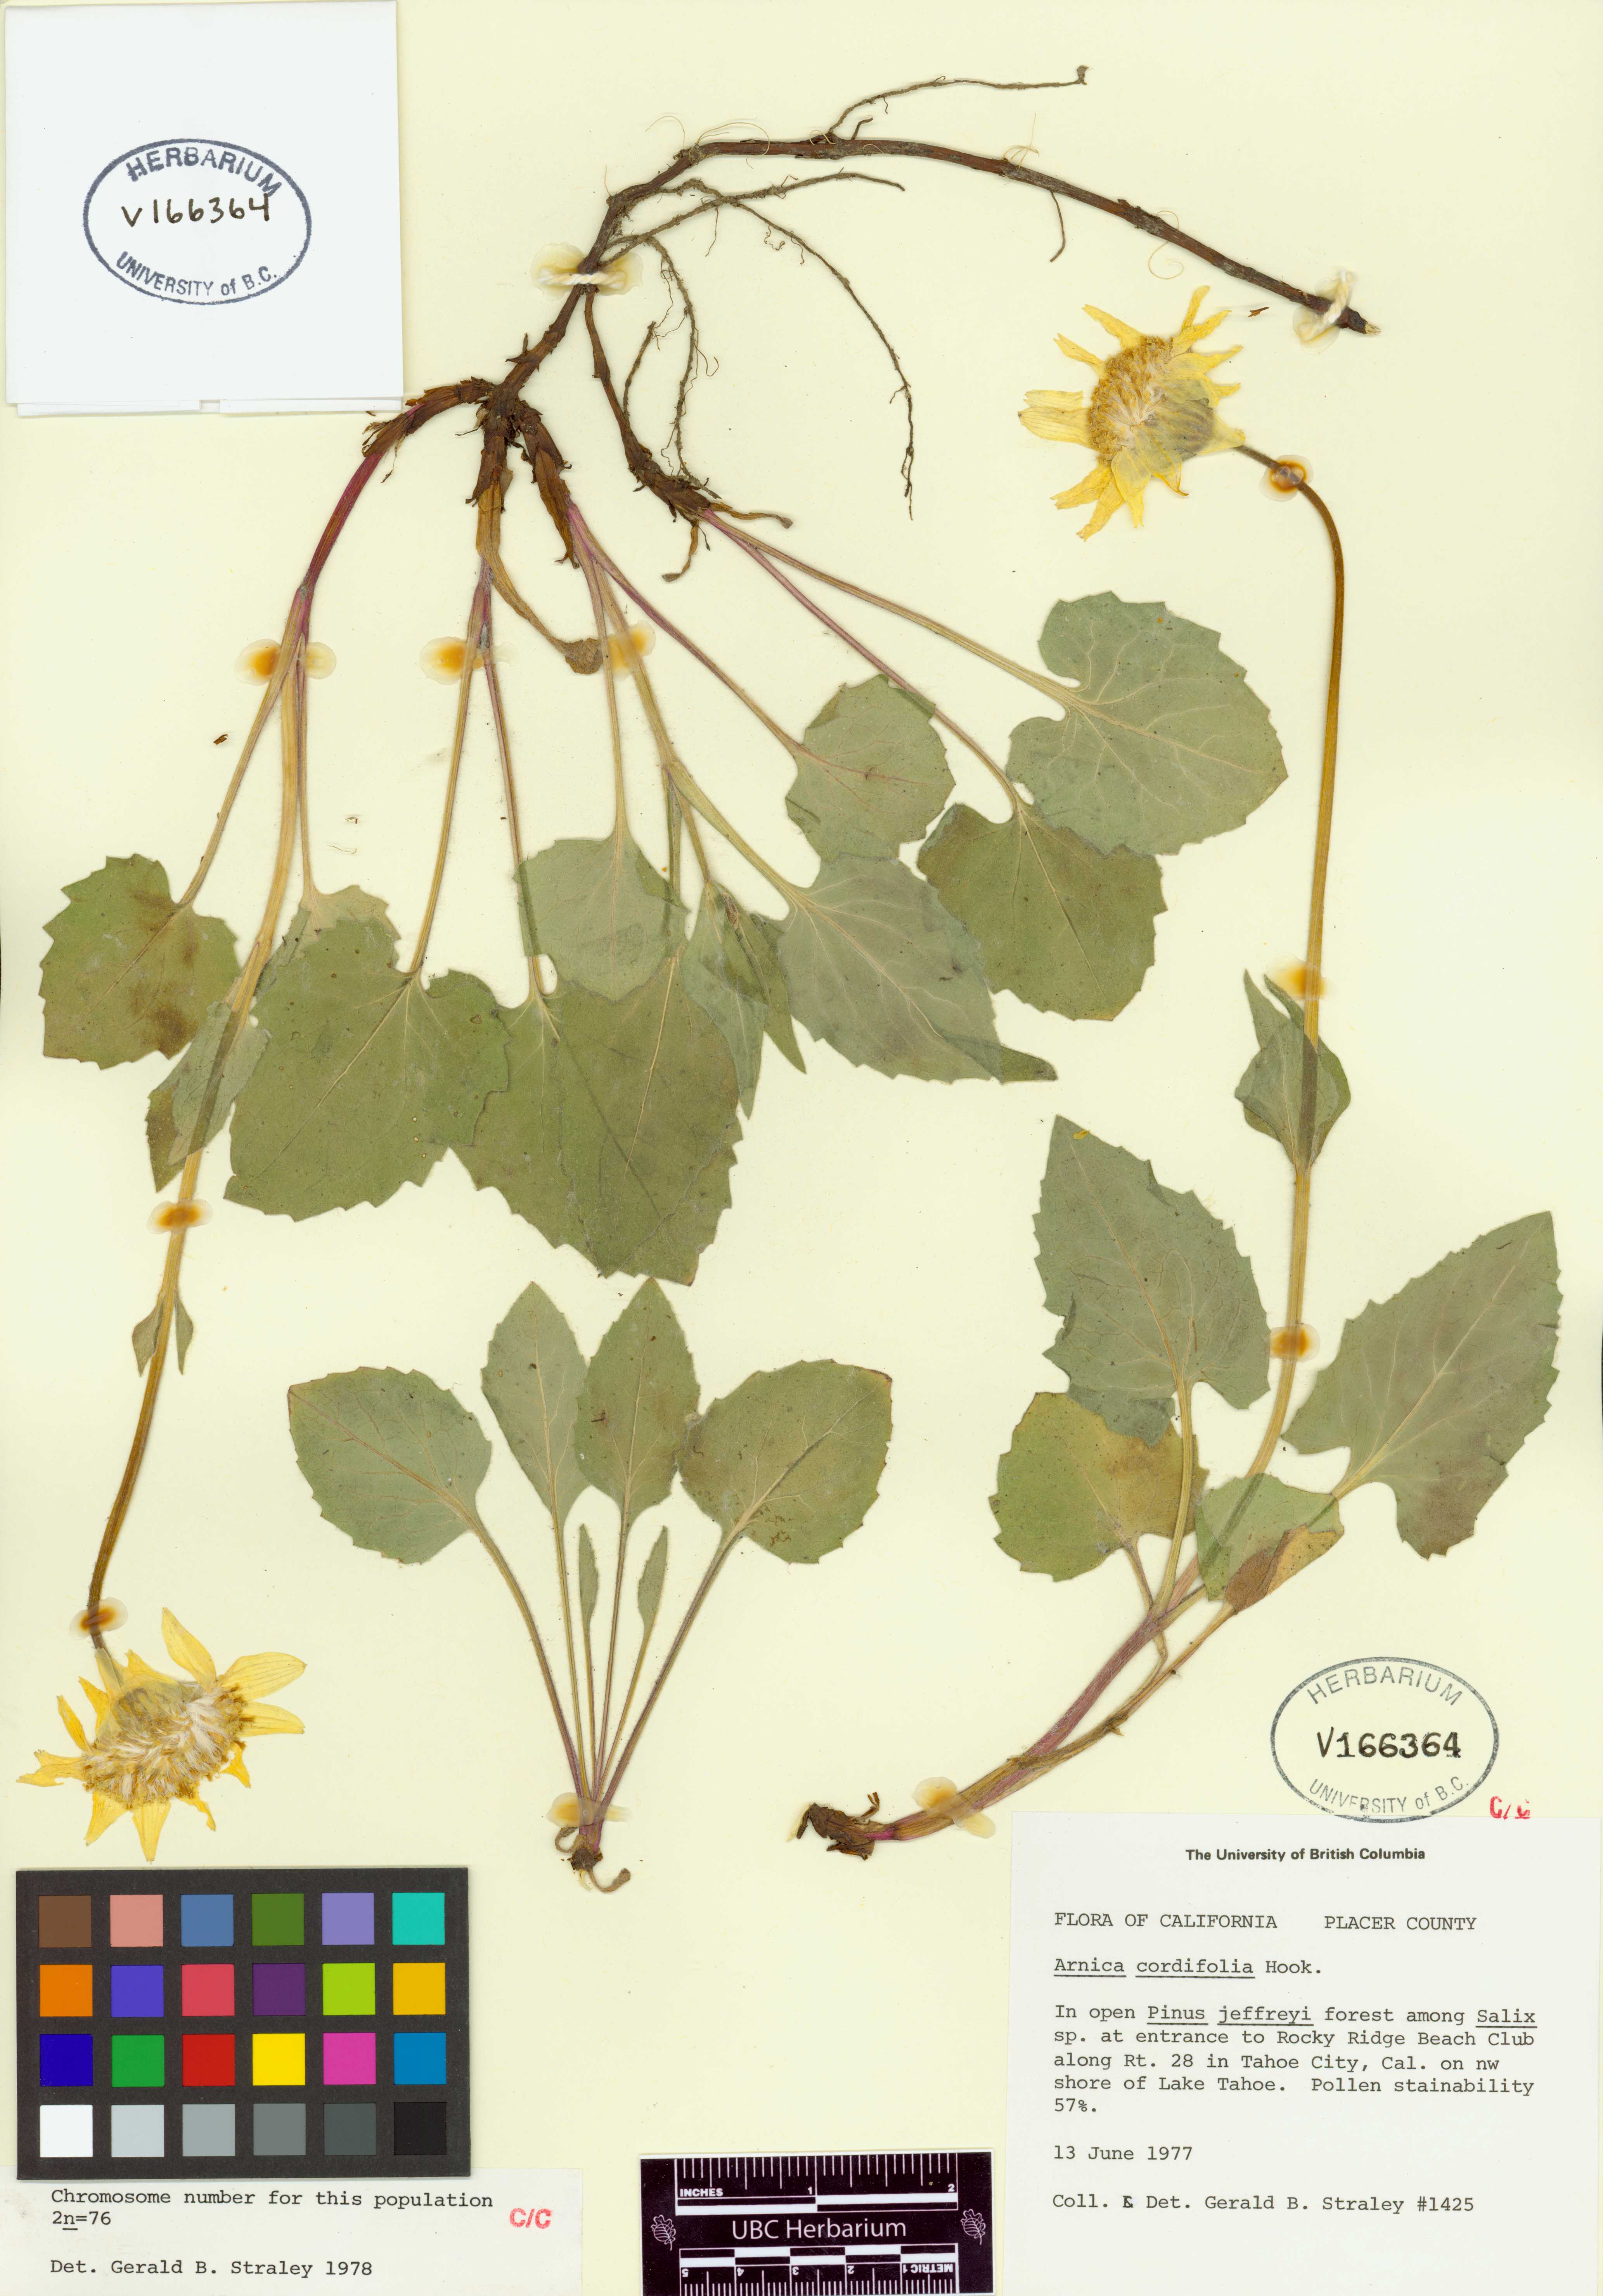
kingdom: Plantae
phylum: Tracheophyta
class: Magnoliopsida
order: Asterales
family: Asteraceae
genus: Arnica
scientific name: Arnica cordifolia
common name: Heart-leaf arnica
